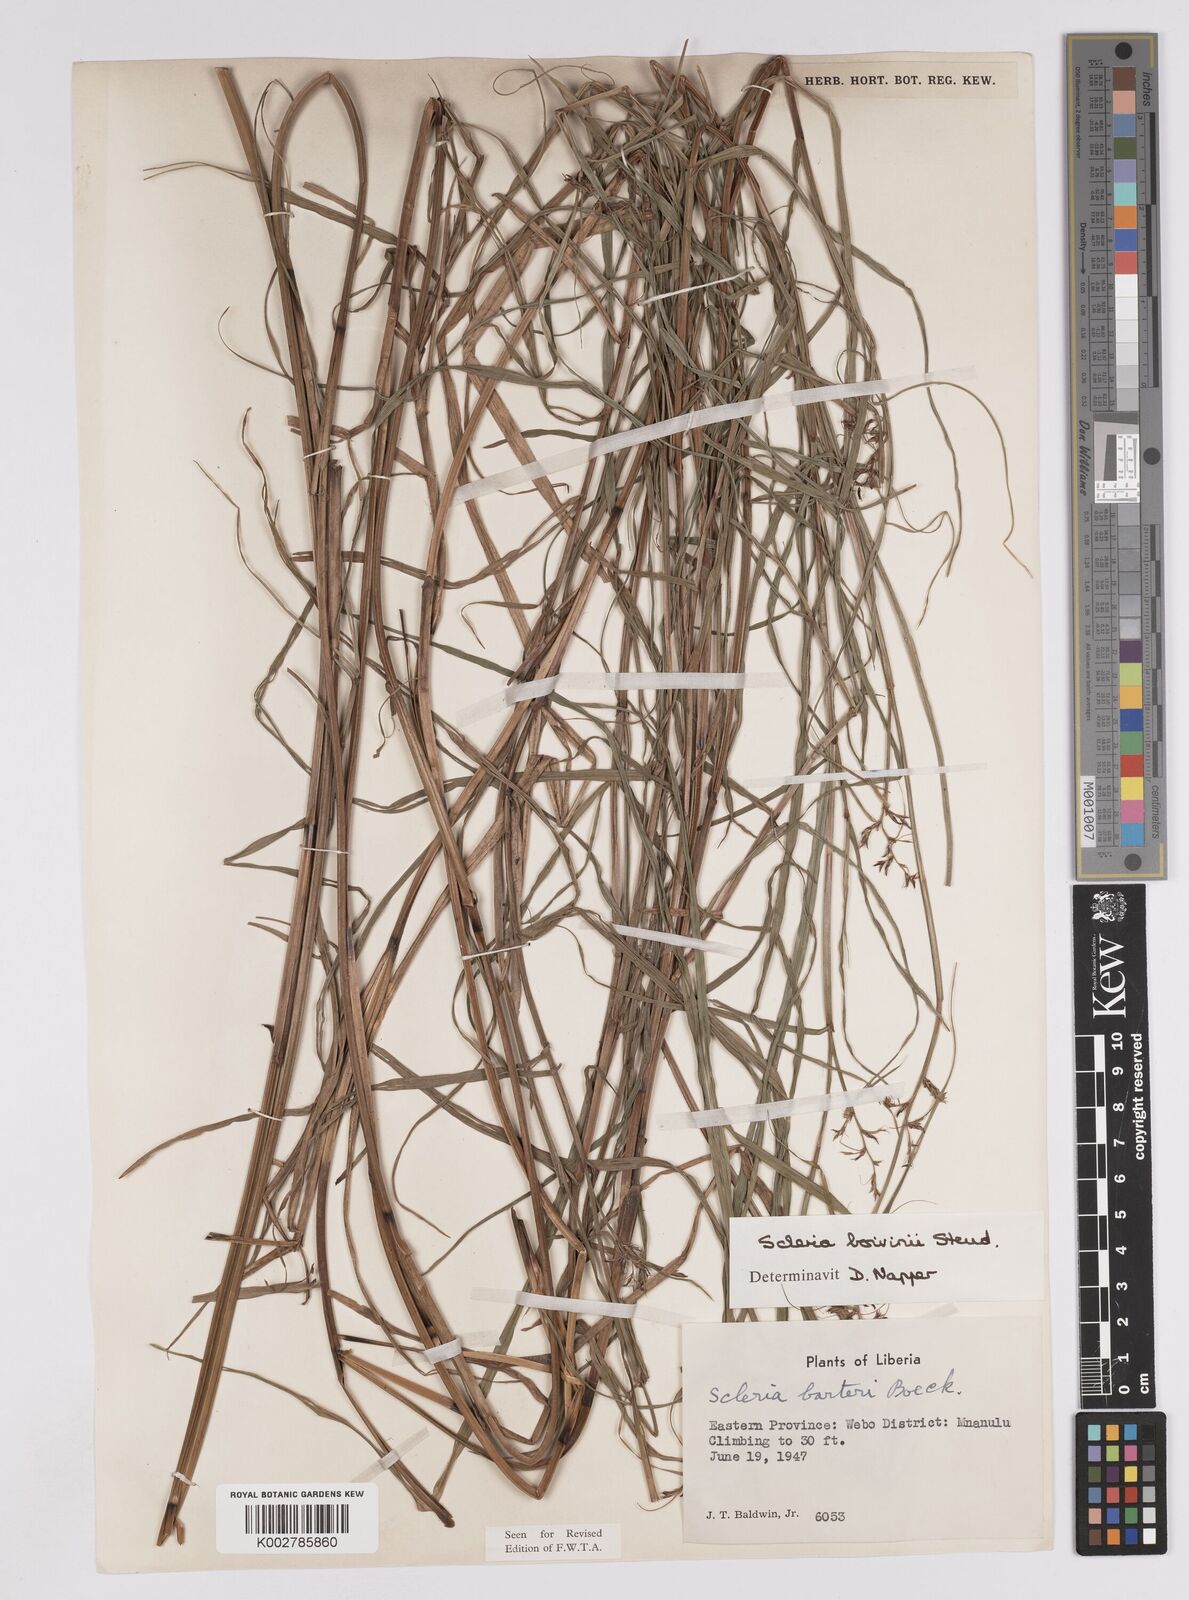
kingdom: Plantae
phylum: Tracheophyta
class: Liliopsida
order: Poales
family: Cyperaceae
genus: Scleria
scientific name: Scleria boivinii
